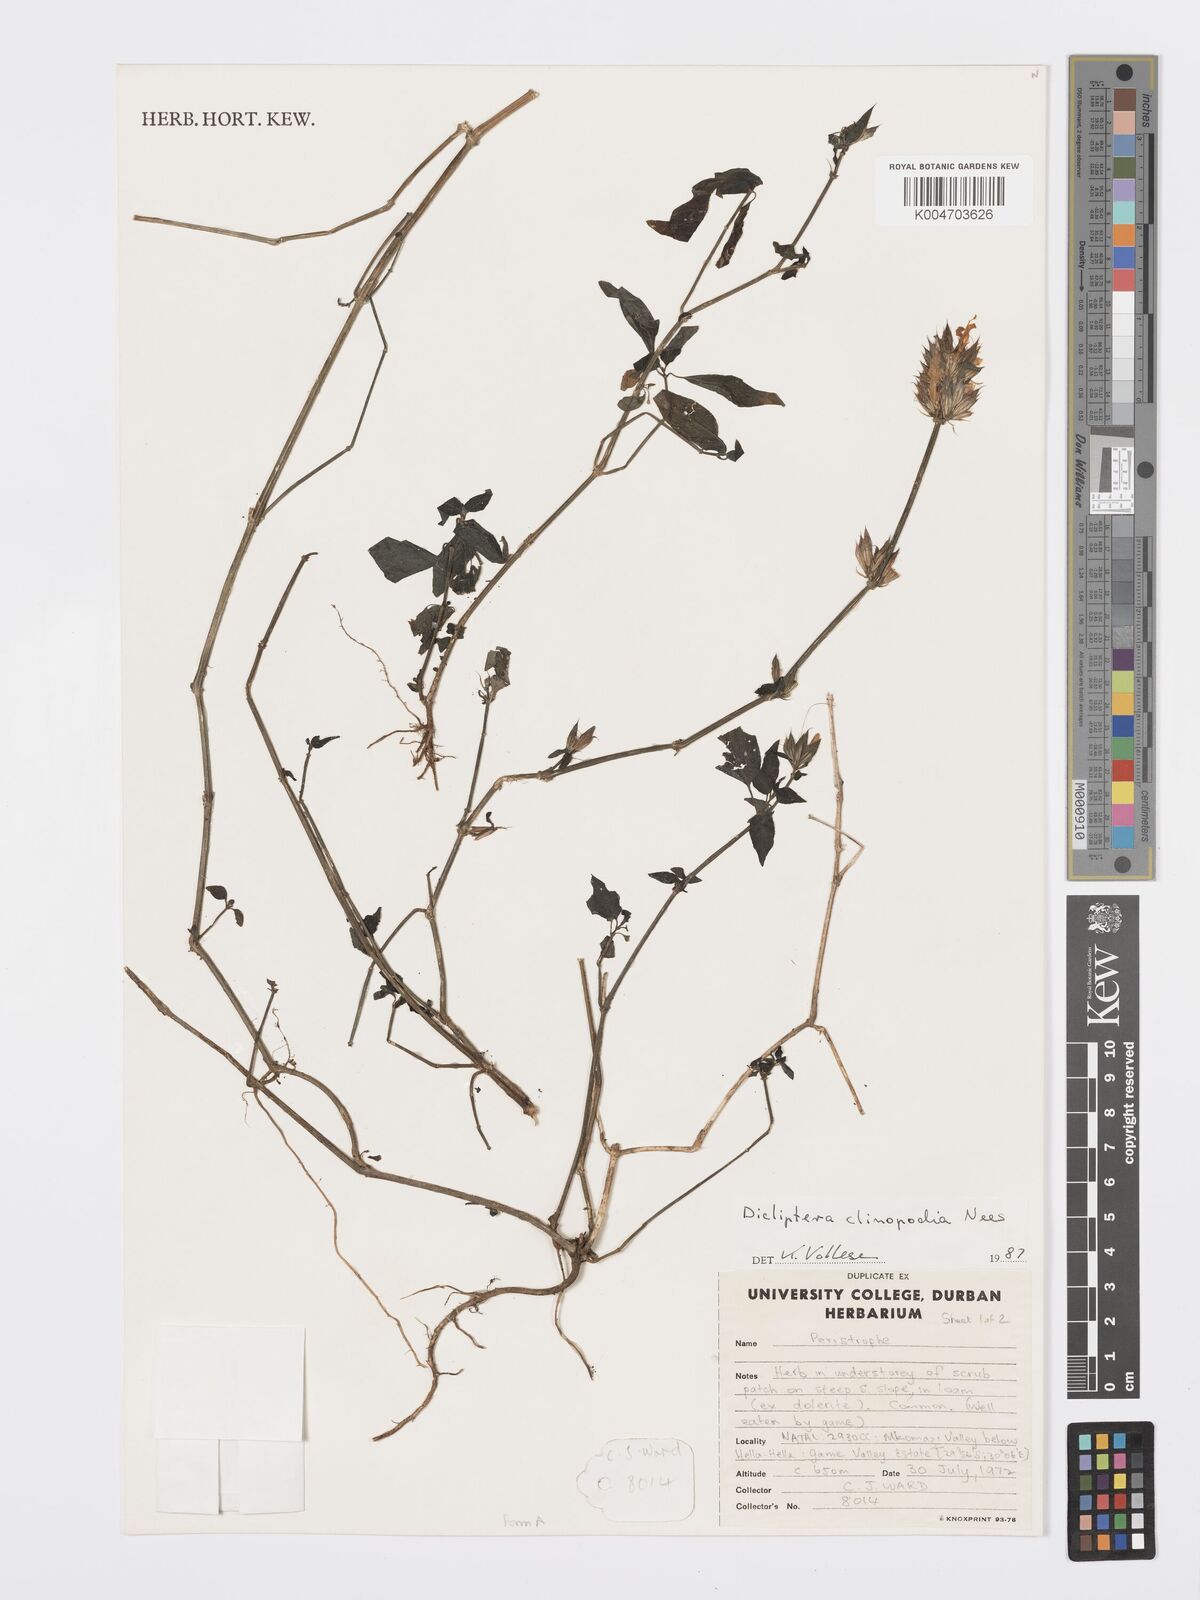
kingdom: Plantae
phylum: Tracheophyta
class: Magnoliopsida
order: Lamiales
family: Acanthaceae
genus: Dicliptera
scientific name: Dicliptera clinopodia
